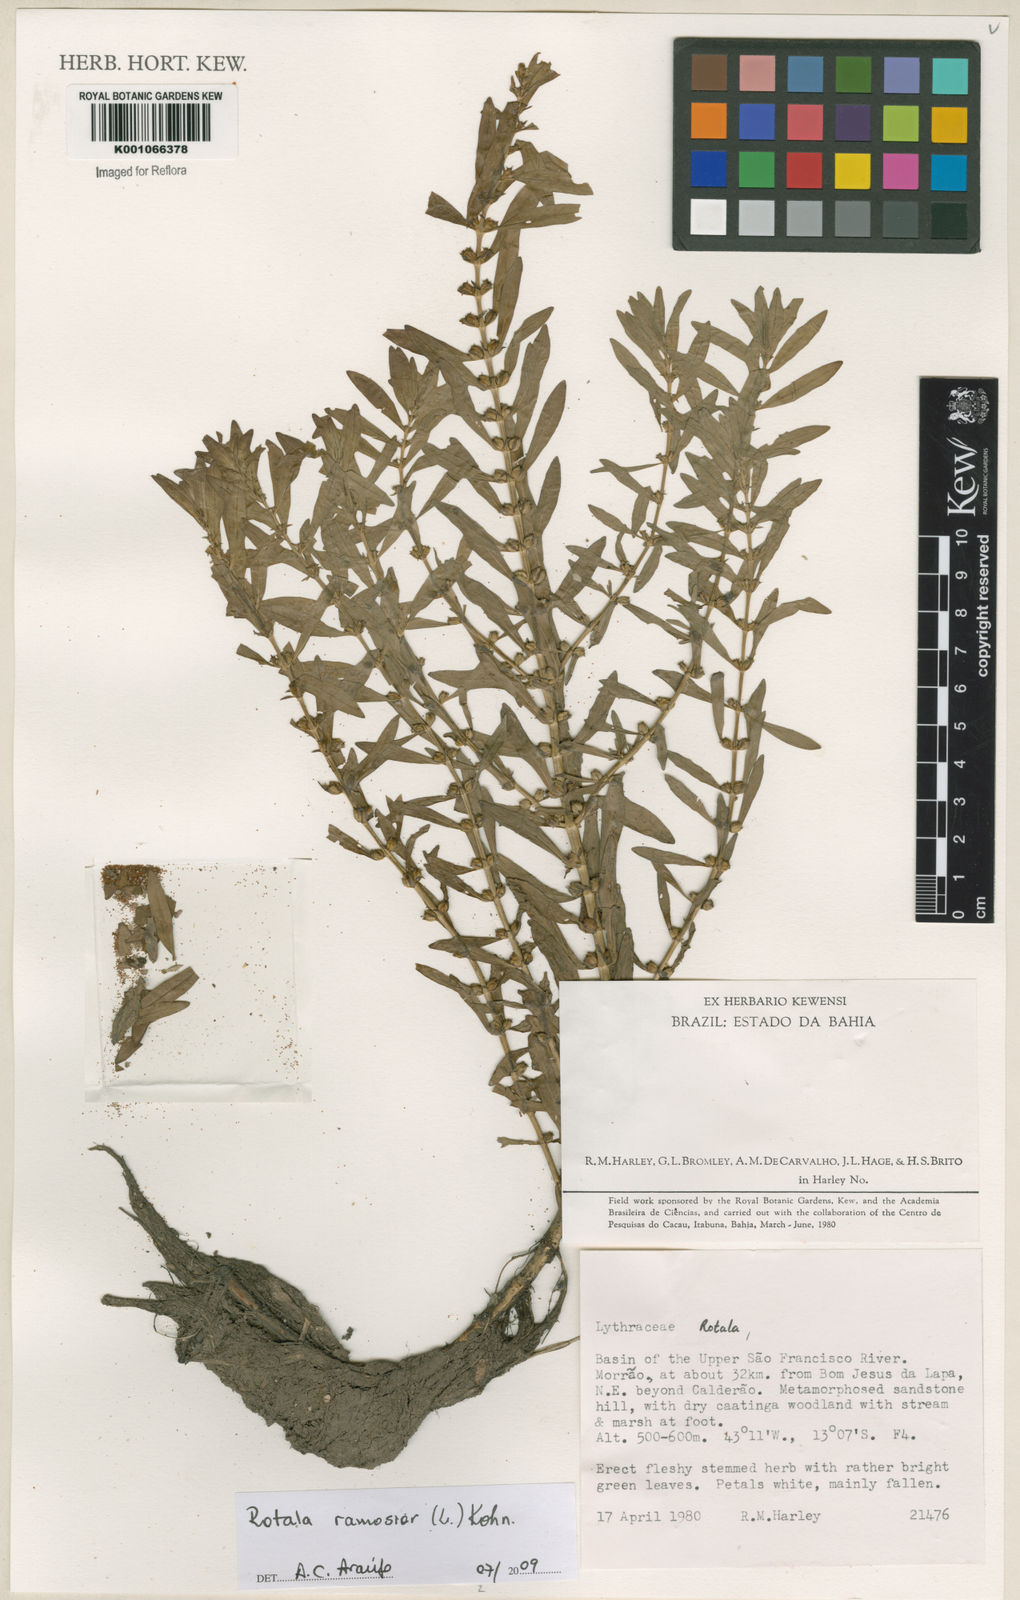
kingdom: Plantae
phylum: Tracheophyta
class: Magnoliopsida
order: Myrtales
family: Lythraceae
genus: Rotala
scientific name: Rotala ramosior
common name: Lowland rotala
